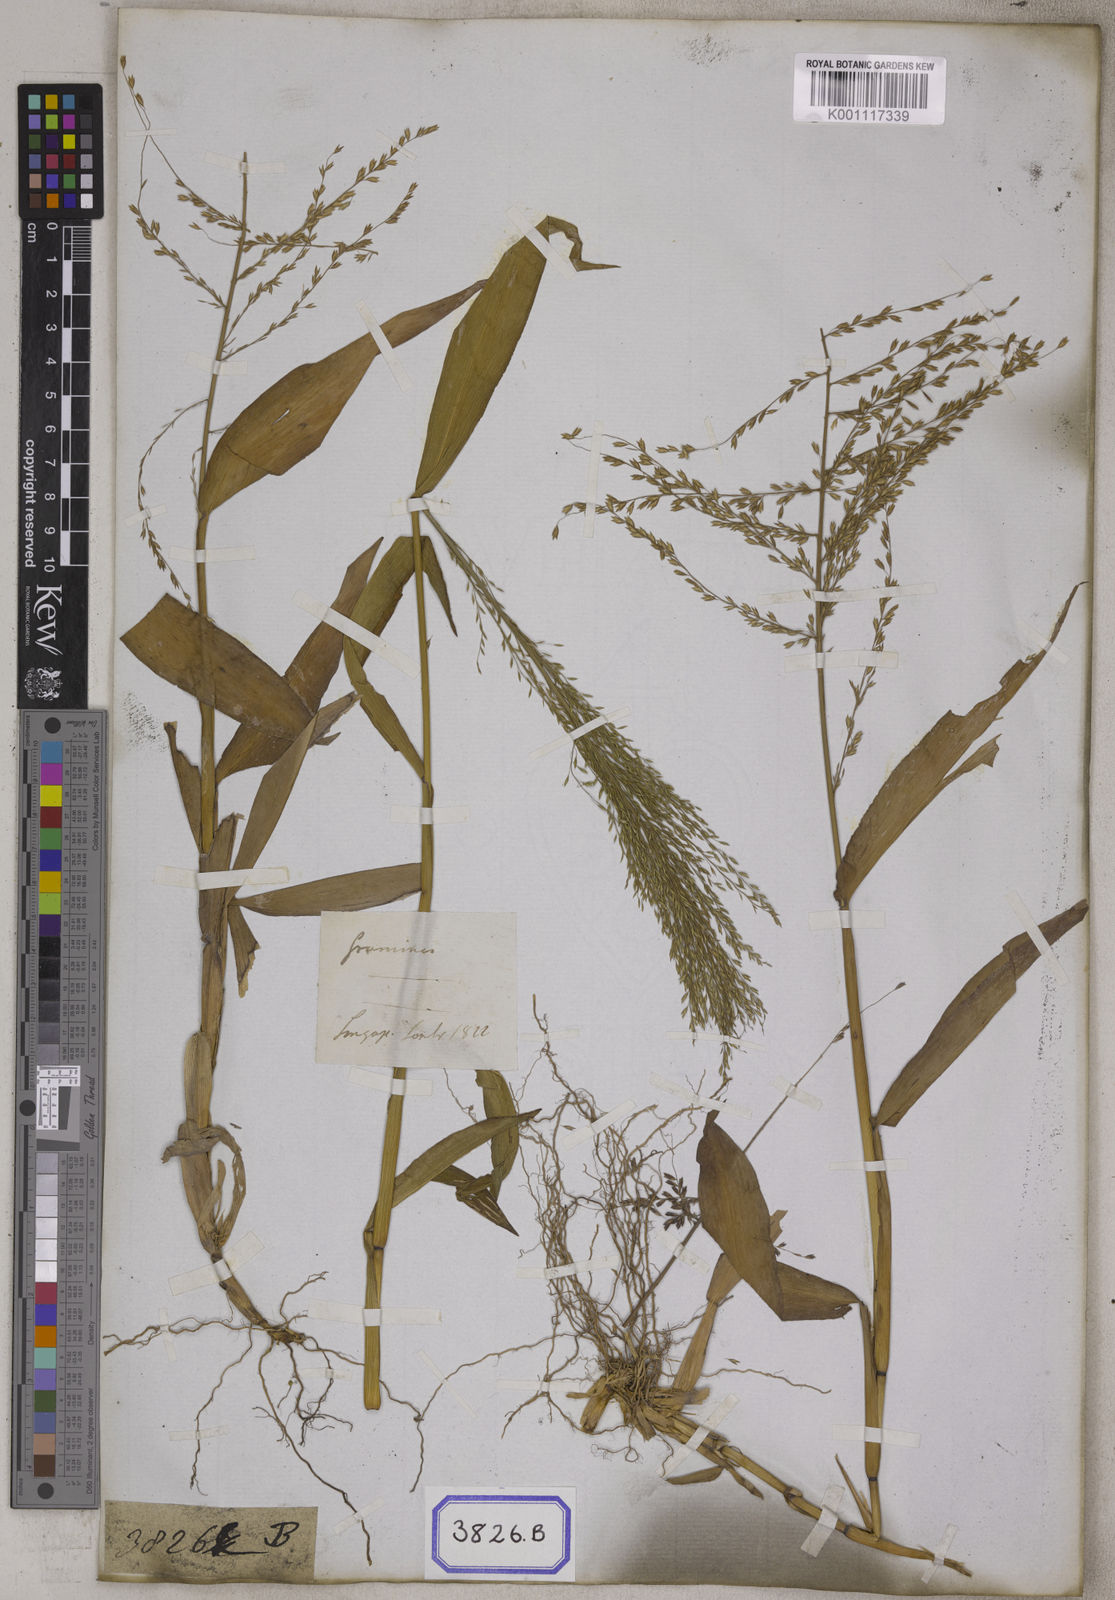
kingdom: Plantae
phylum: Tracheophyta
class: Liliopsida
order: Poales
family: Poaceae
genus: Centotheca
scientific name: Centotheca lappacea
